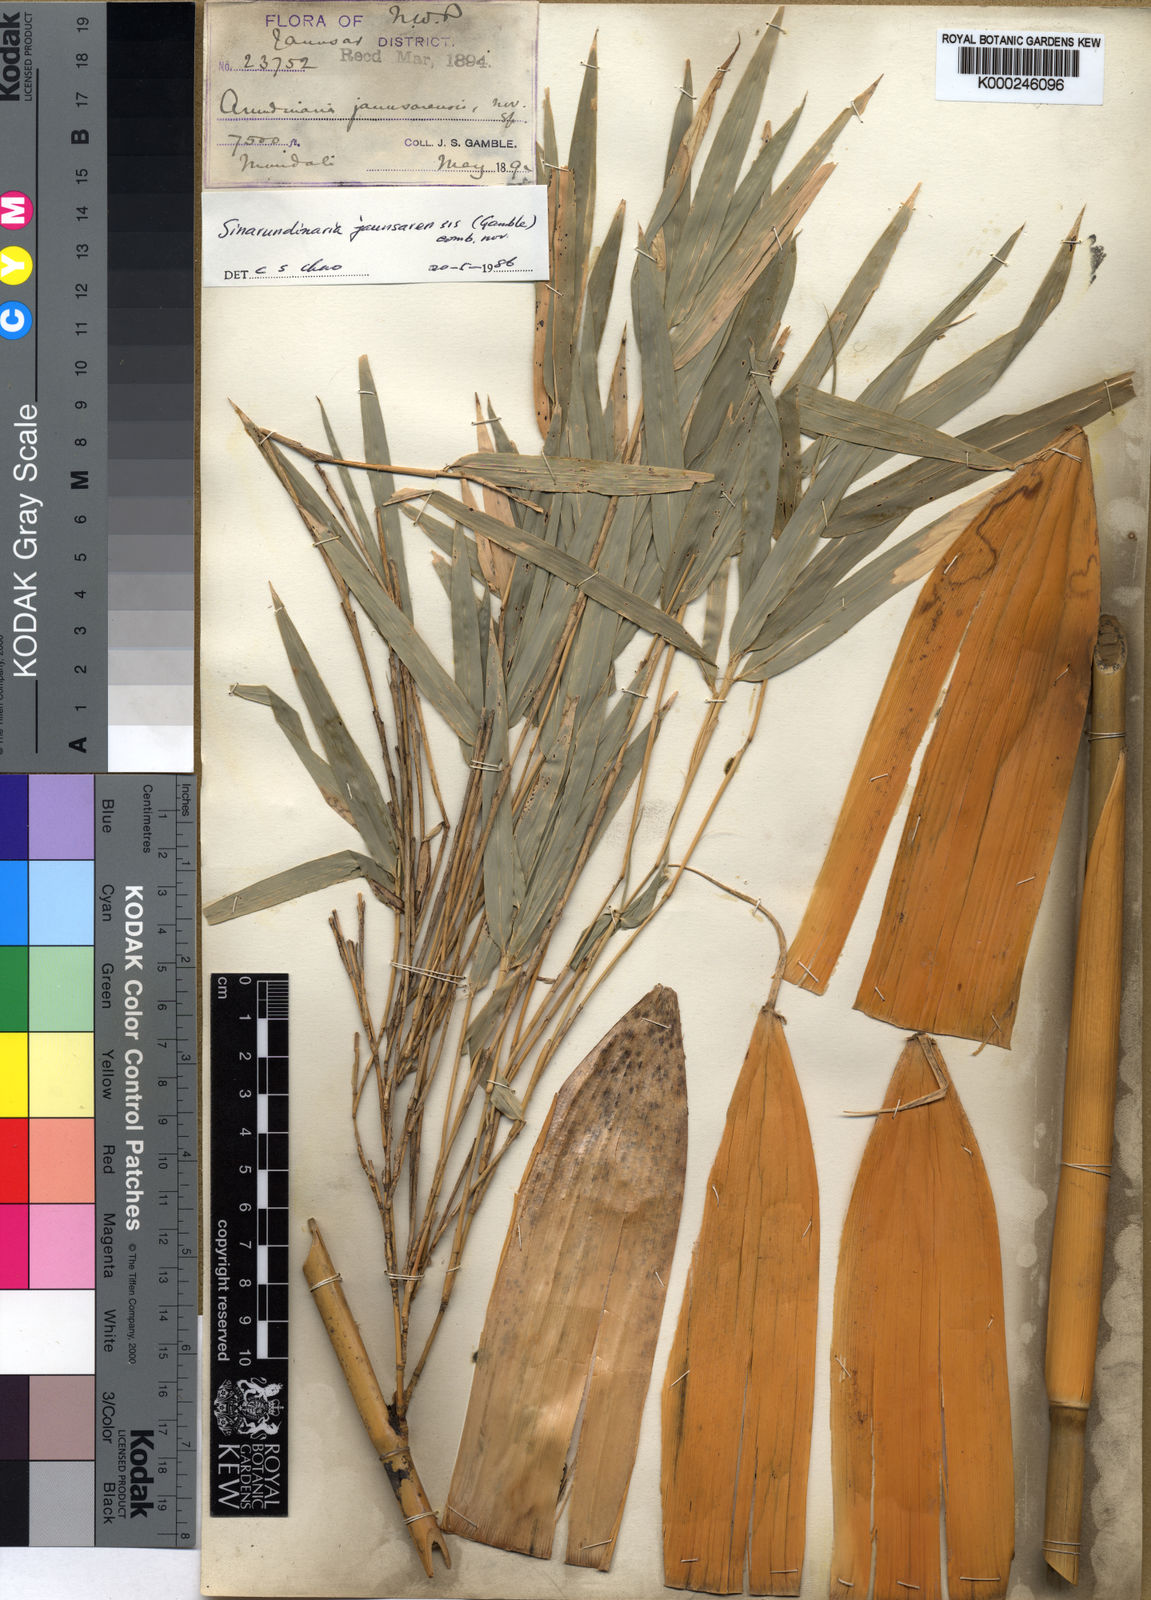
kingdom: Plantae
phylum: Tracheophyta
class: Liliopsida
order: Poales
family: Poaceae
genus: Yushania
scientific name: Yushania anceps
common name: Indian fountain-bamboo
